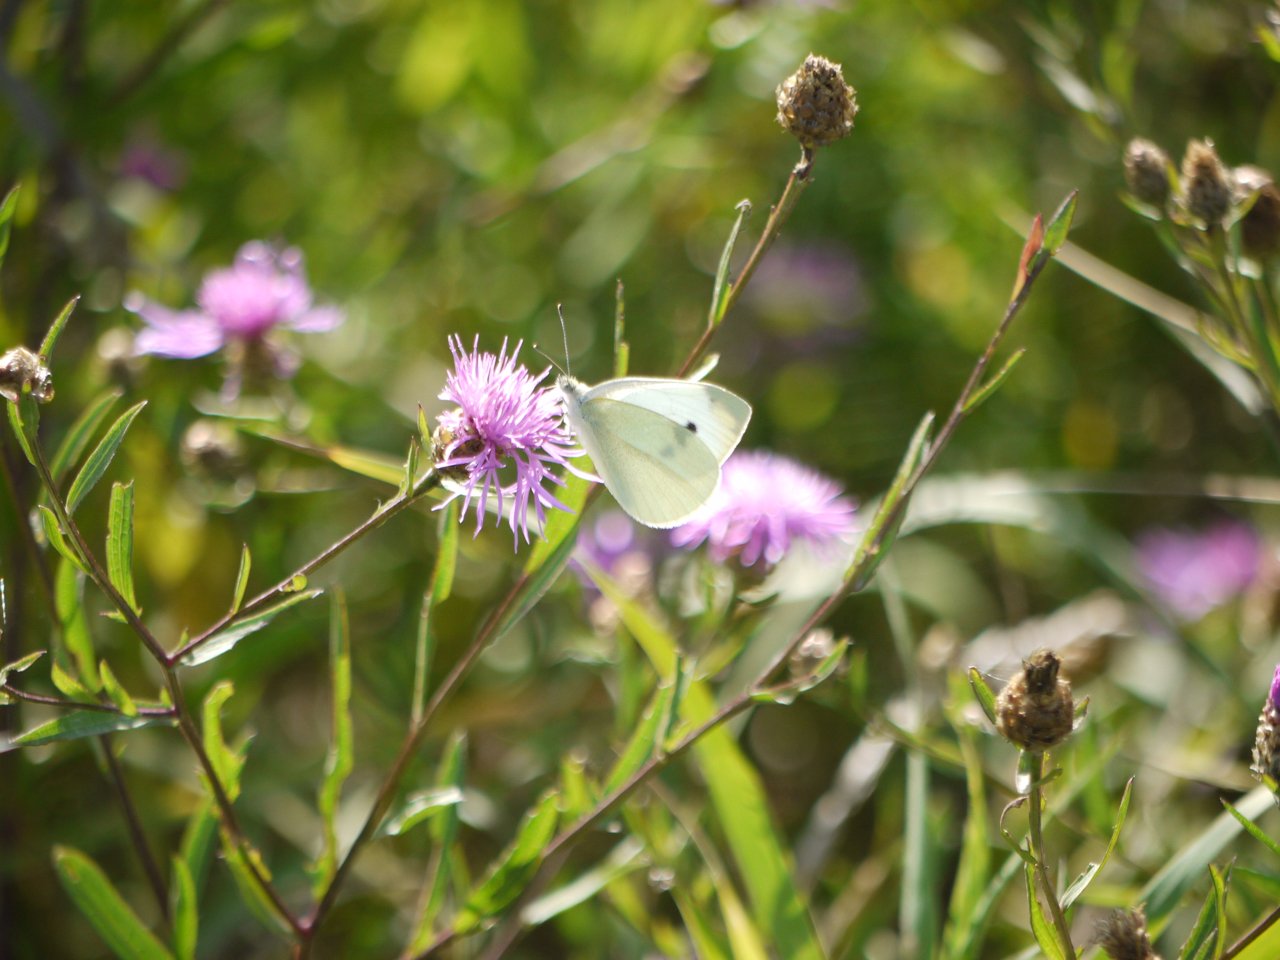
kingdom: Animalia
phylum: Arthropoda
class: Insecta
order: Lepidoptera
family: Pieridae
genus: Pieris
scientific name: Pieris rapae
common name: Cabbage White
